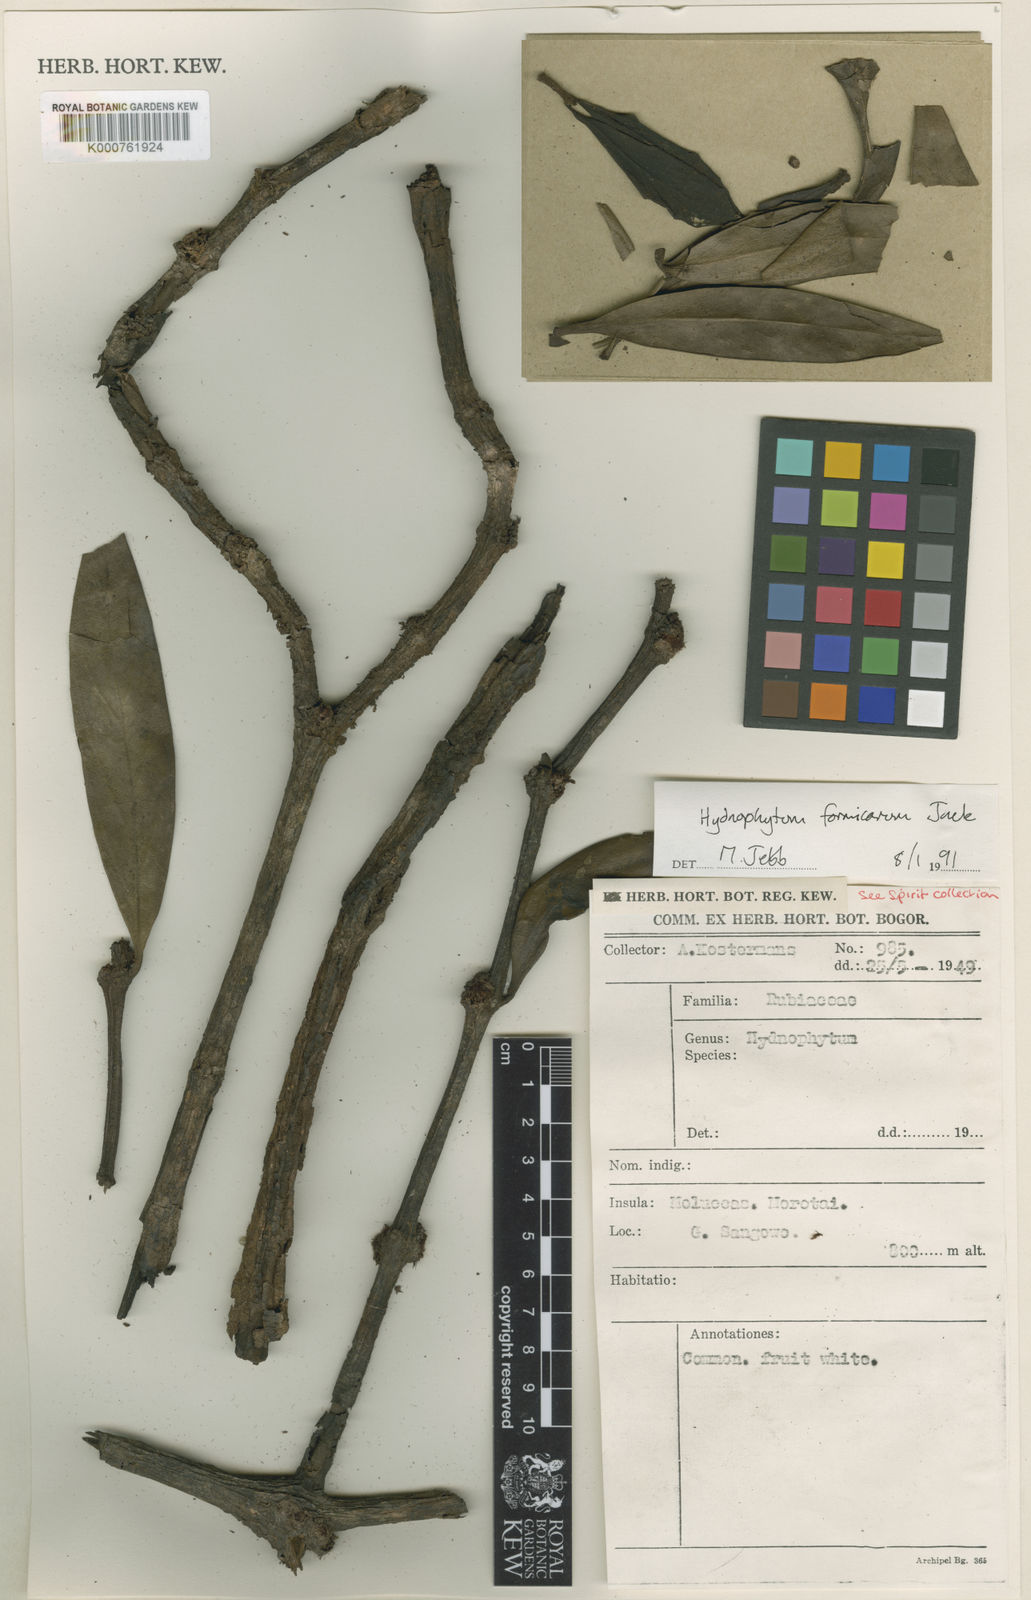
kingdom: Plantae
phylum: Tracheophyta
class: Magnoliopsida
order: Gentianales
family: Rubiaceae
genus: Hydnophytum
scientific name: Hydnophytum
